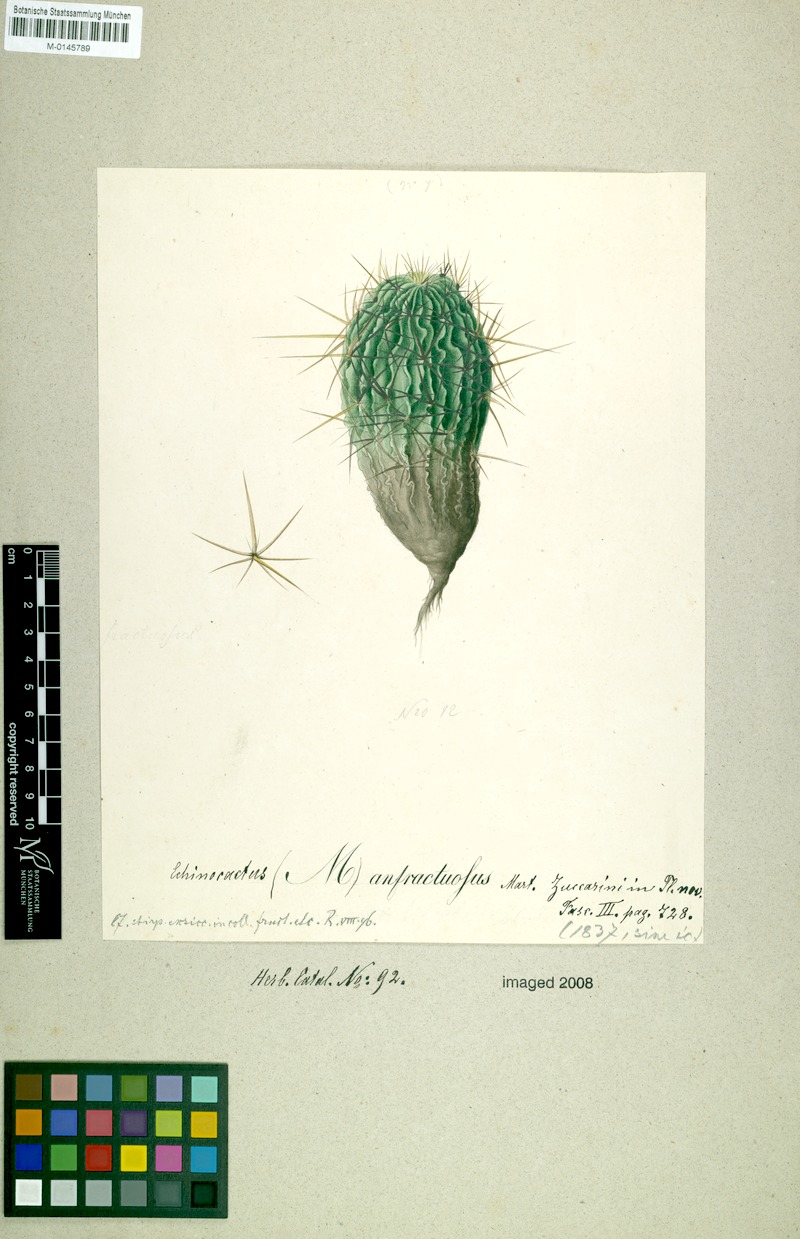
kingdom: Plantae
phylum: Tracheophyta
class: Magnoliopsida
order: Caryophyllales
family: Cactaceae
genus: Stenocactus
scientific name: Stenocactus crispatus
